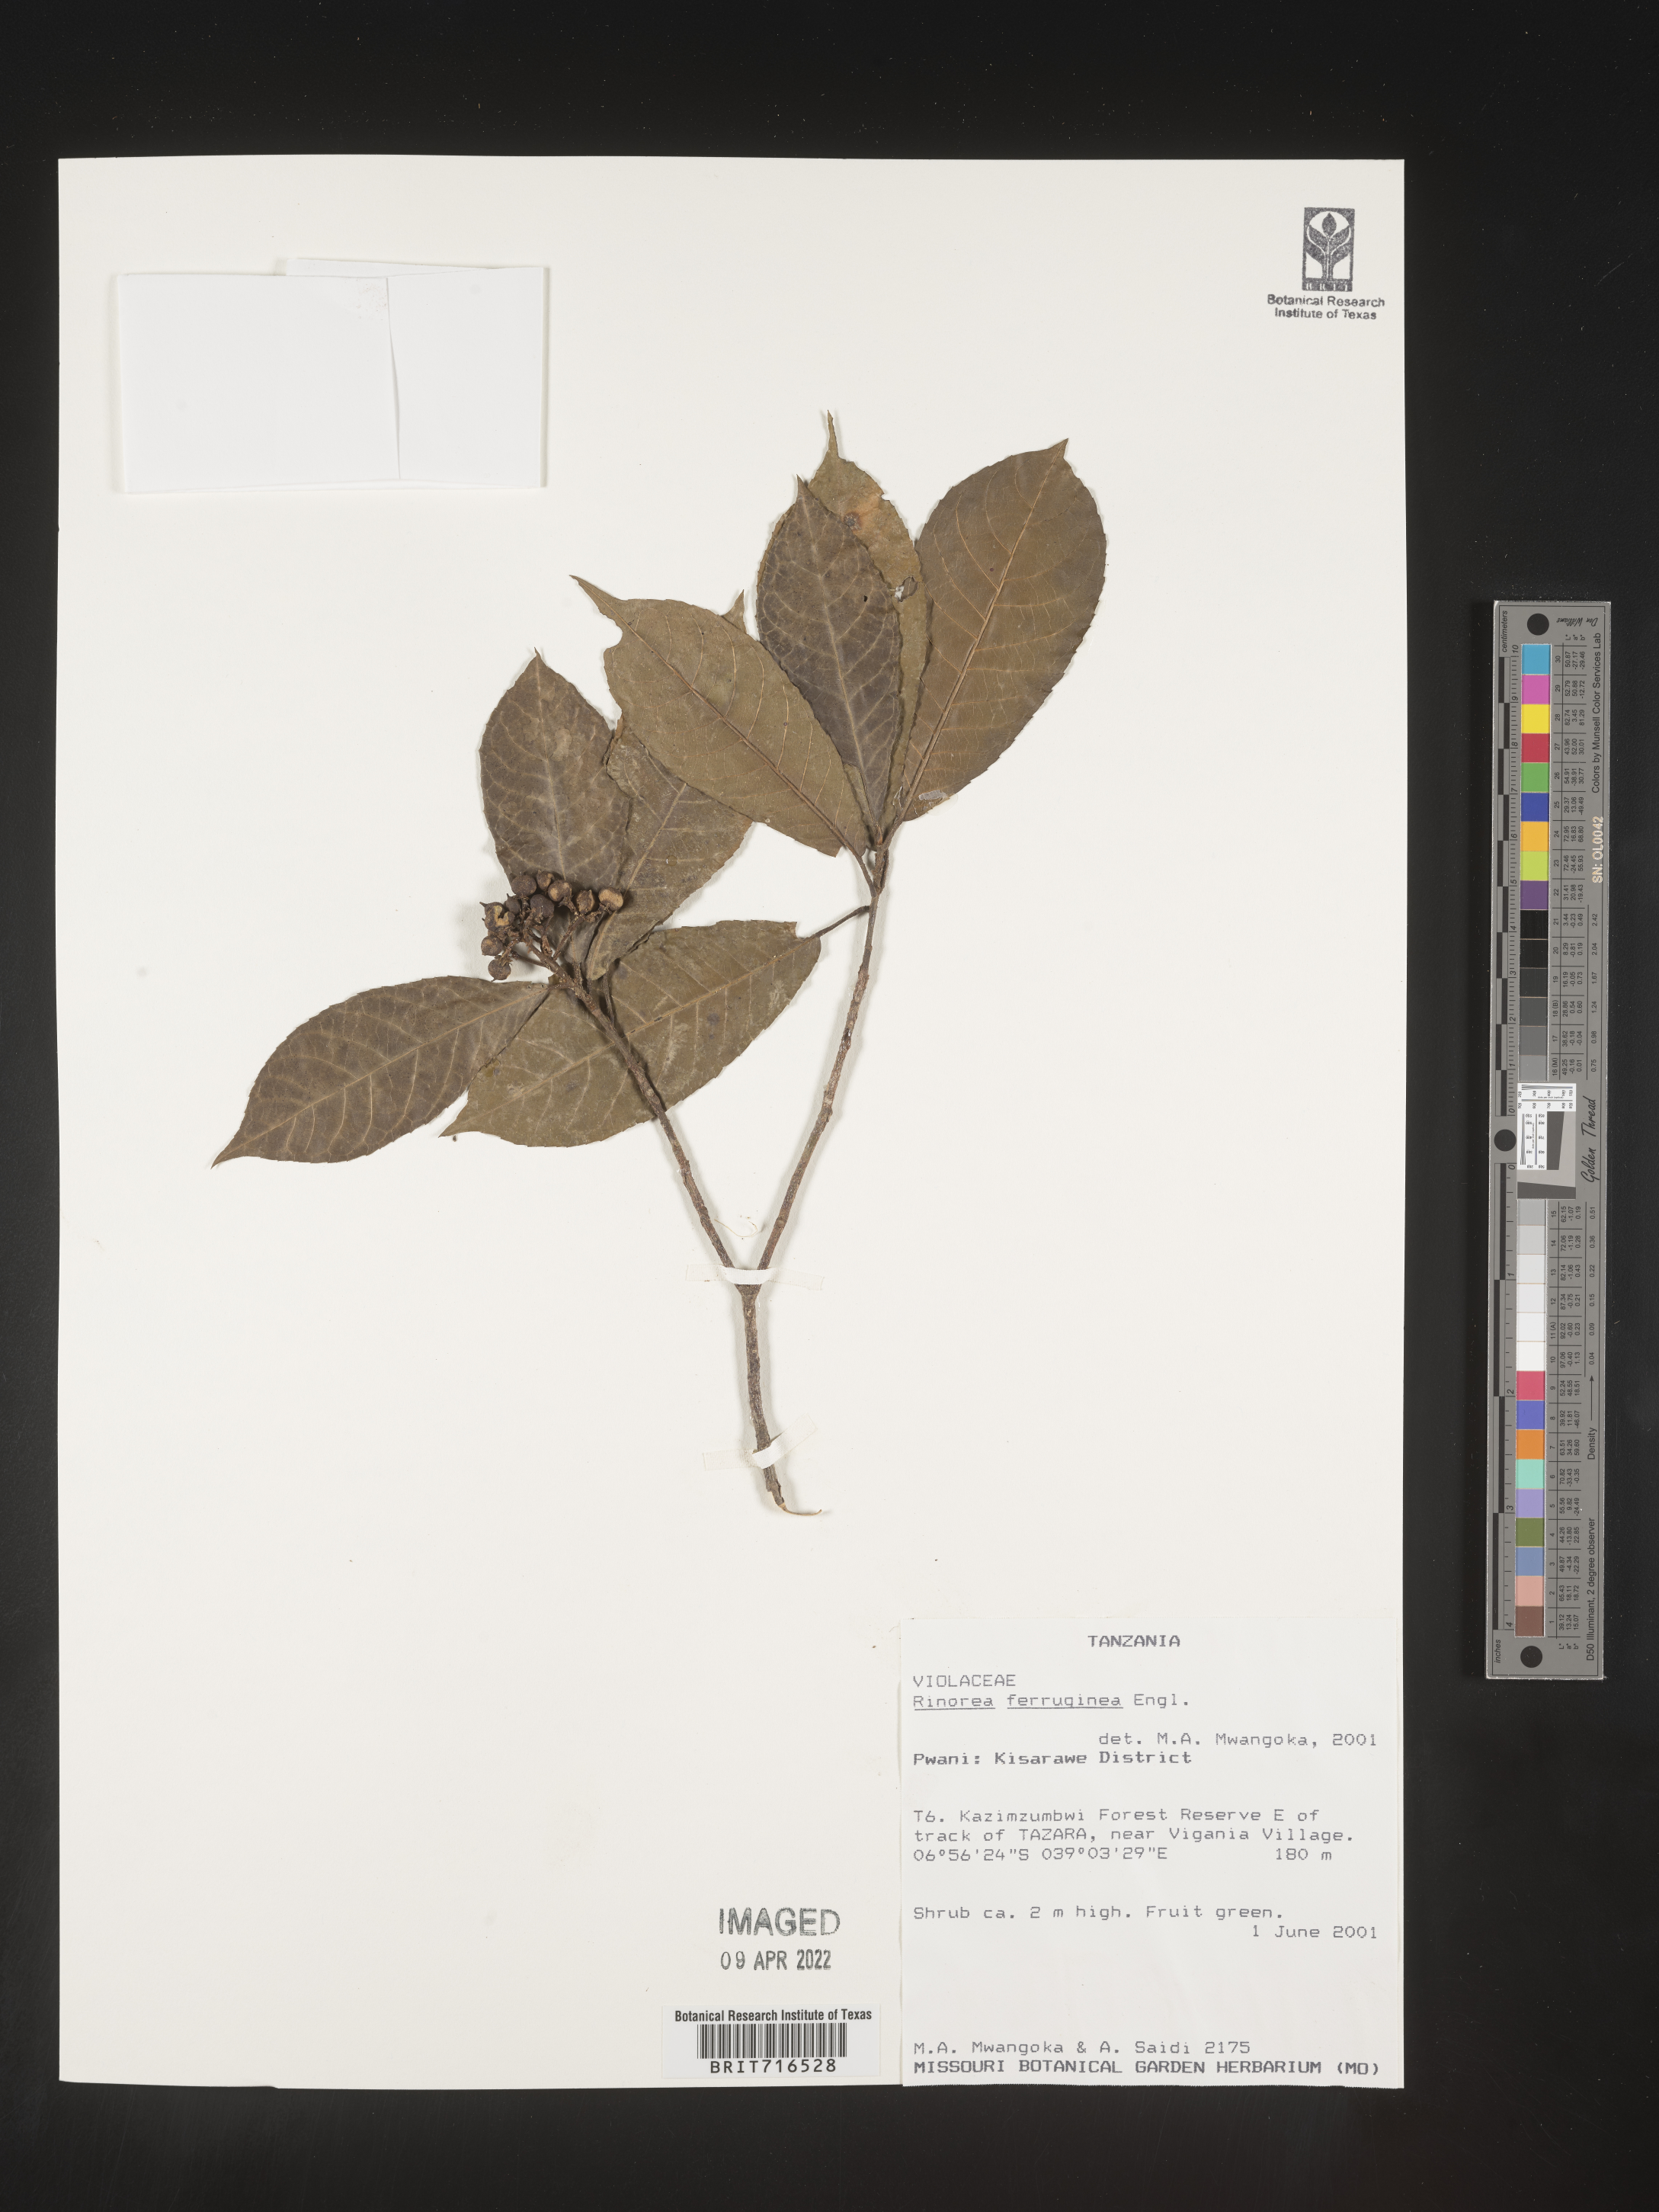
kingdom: Plantae
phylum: Tracheophyta
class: Magnoliopsida
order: Malpighiales
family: Violaceae
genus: Rinorea
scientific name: Rinorea
